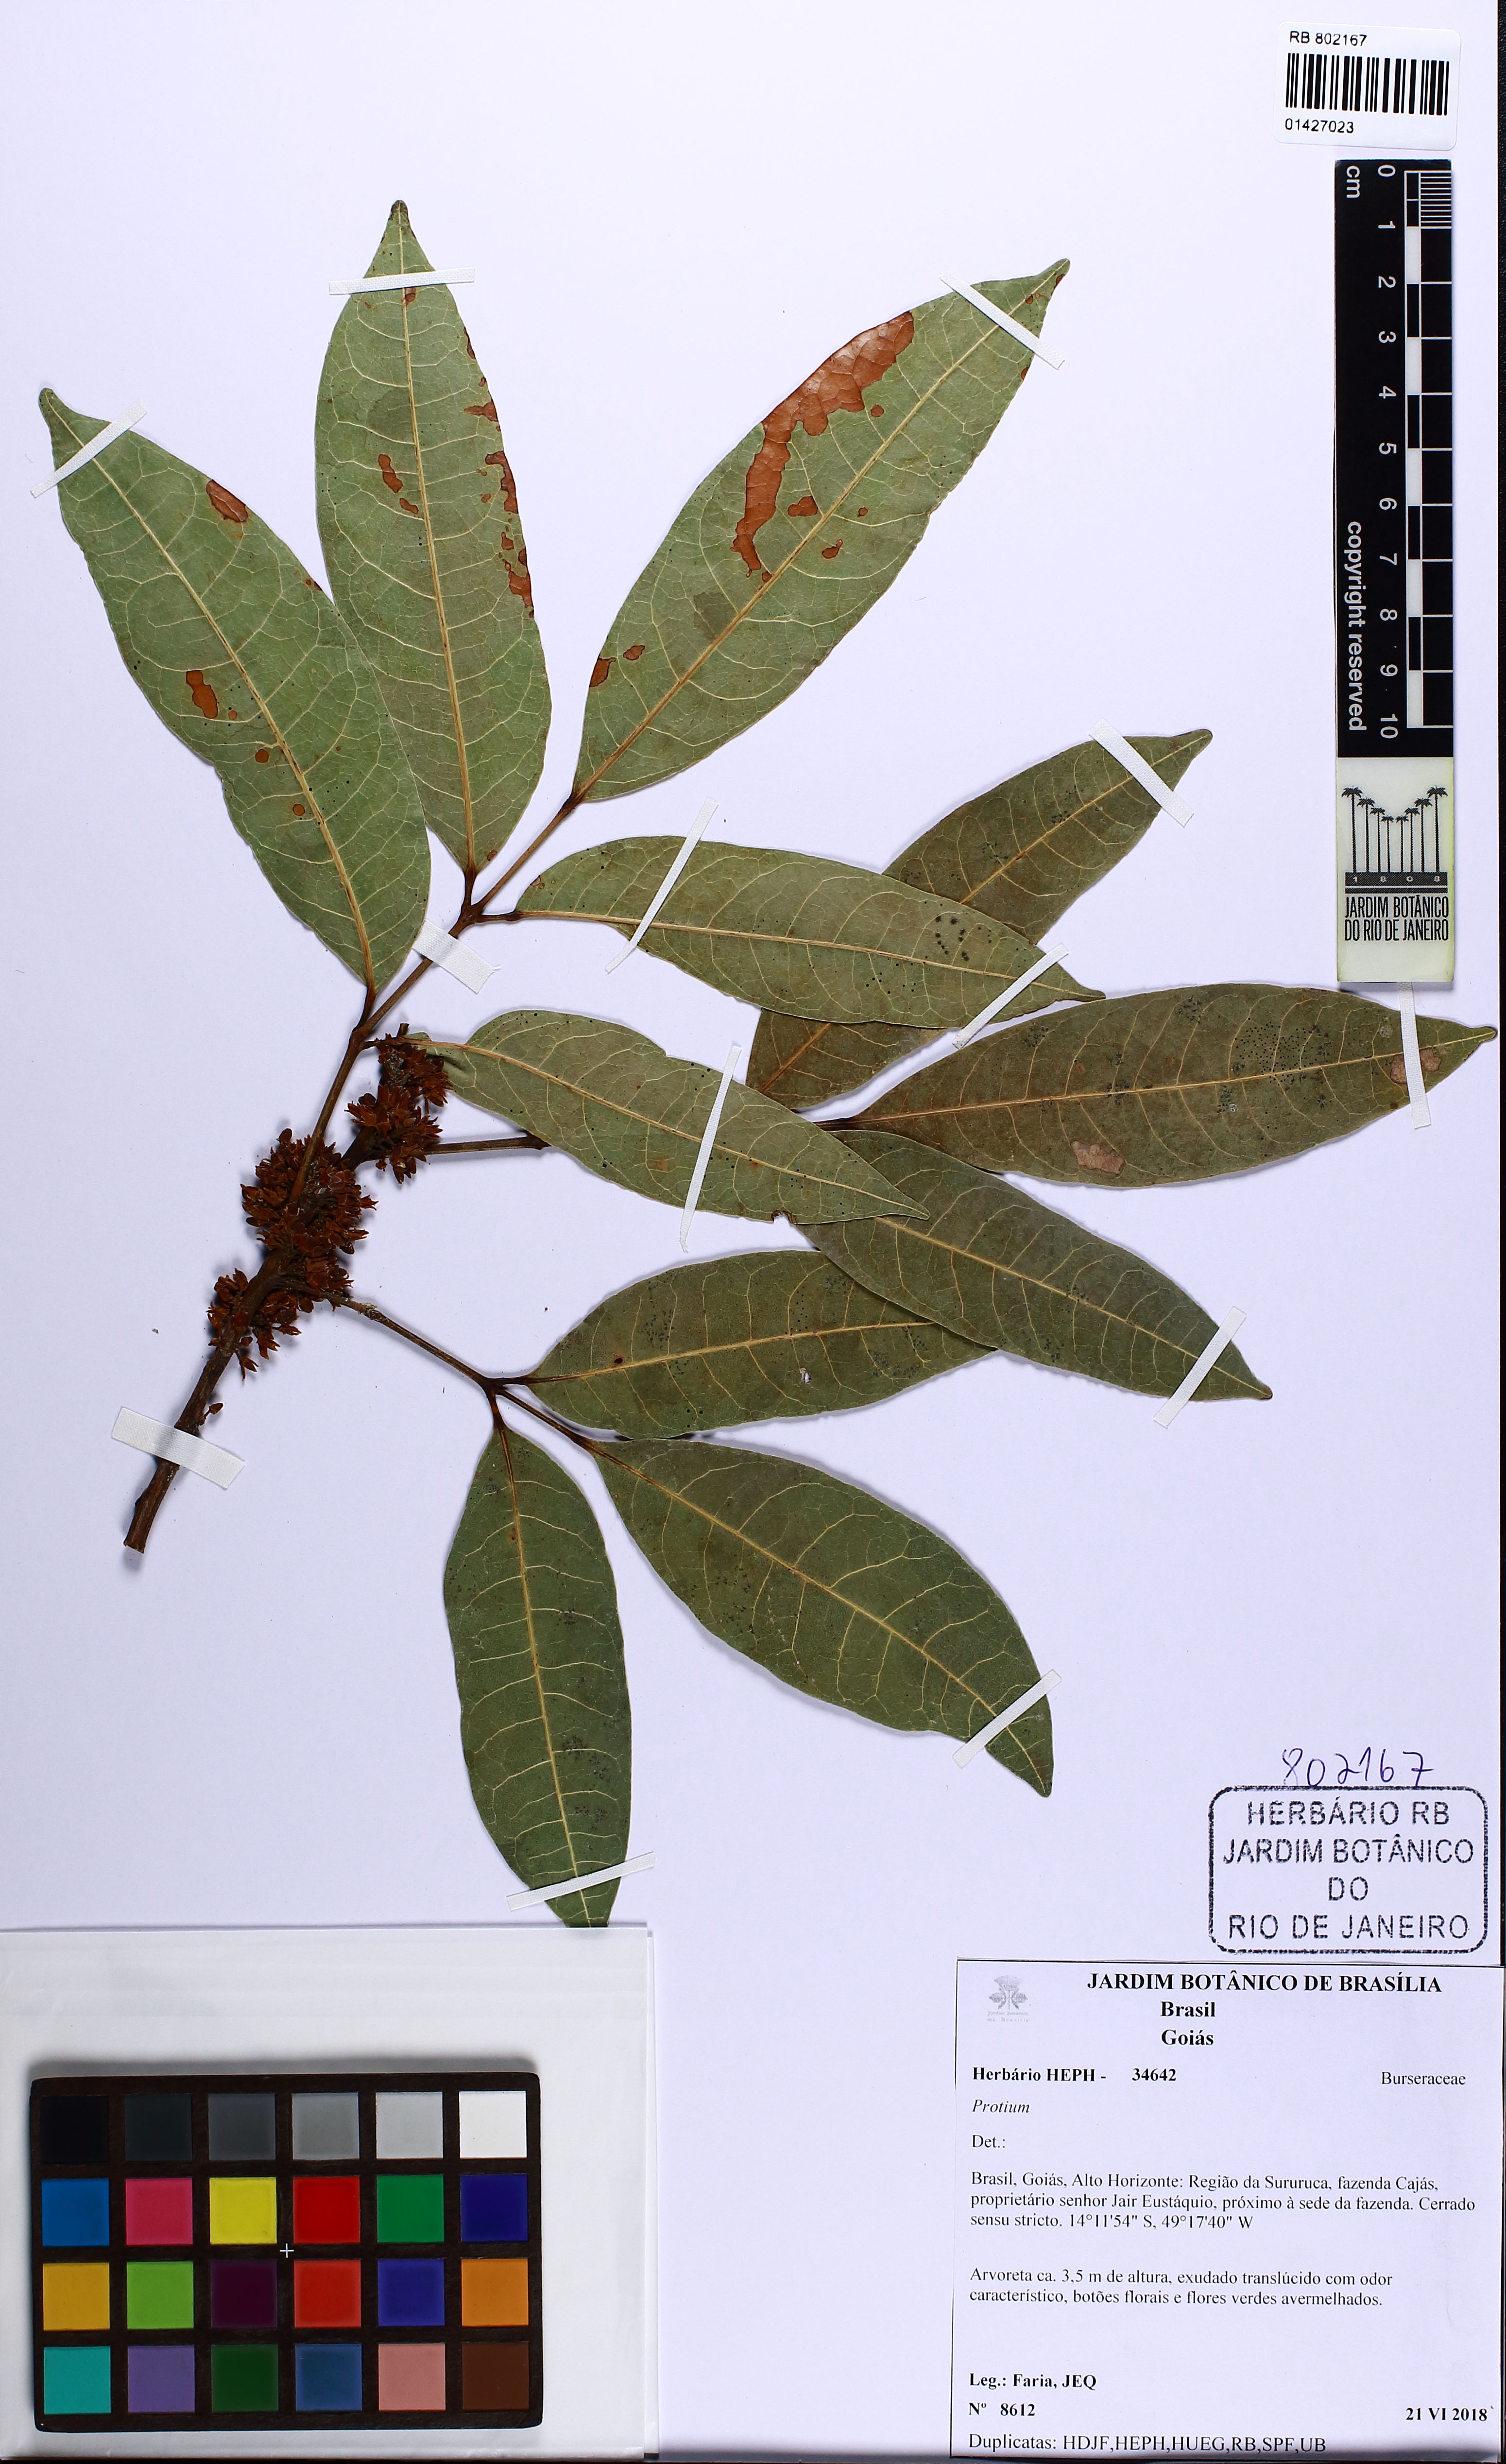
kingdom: Plantae
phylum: Tracheophyta
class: Magnoliopsida
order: Sapindales
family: Burseraceae
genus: Protium
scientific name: Protium
